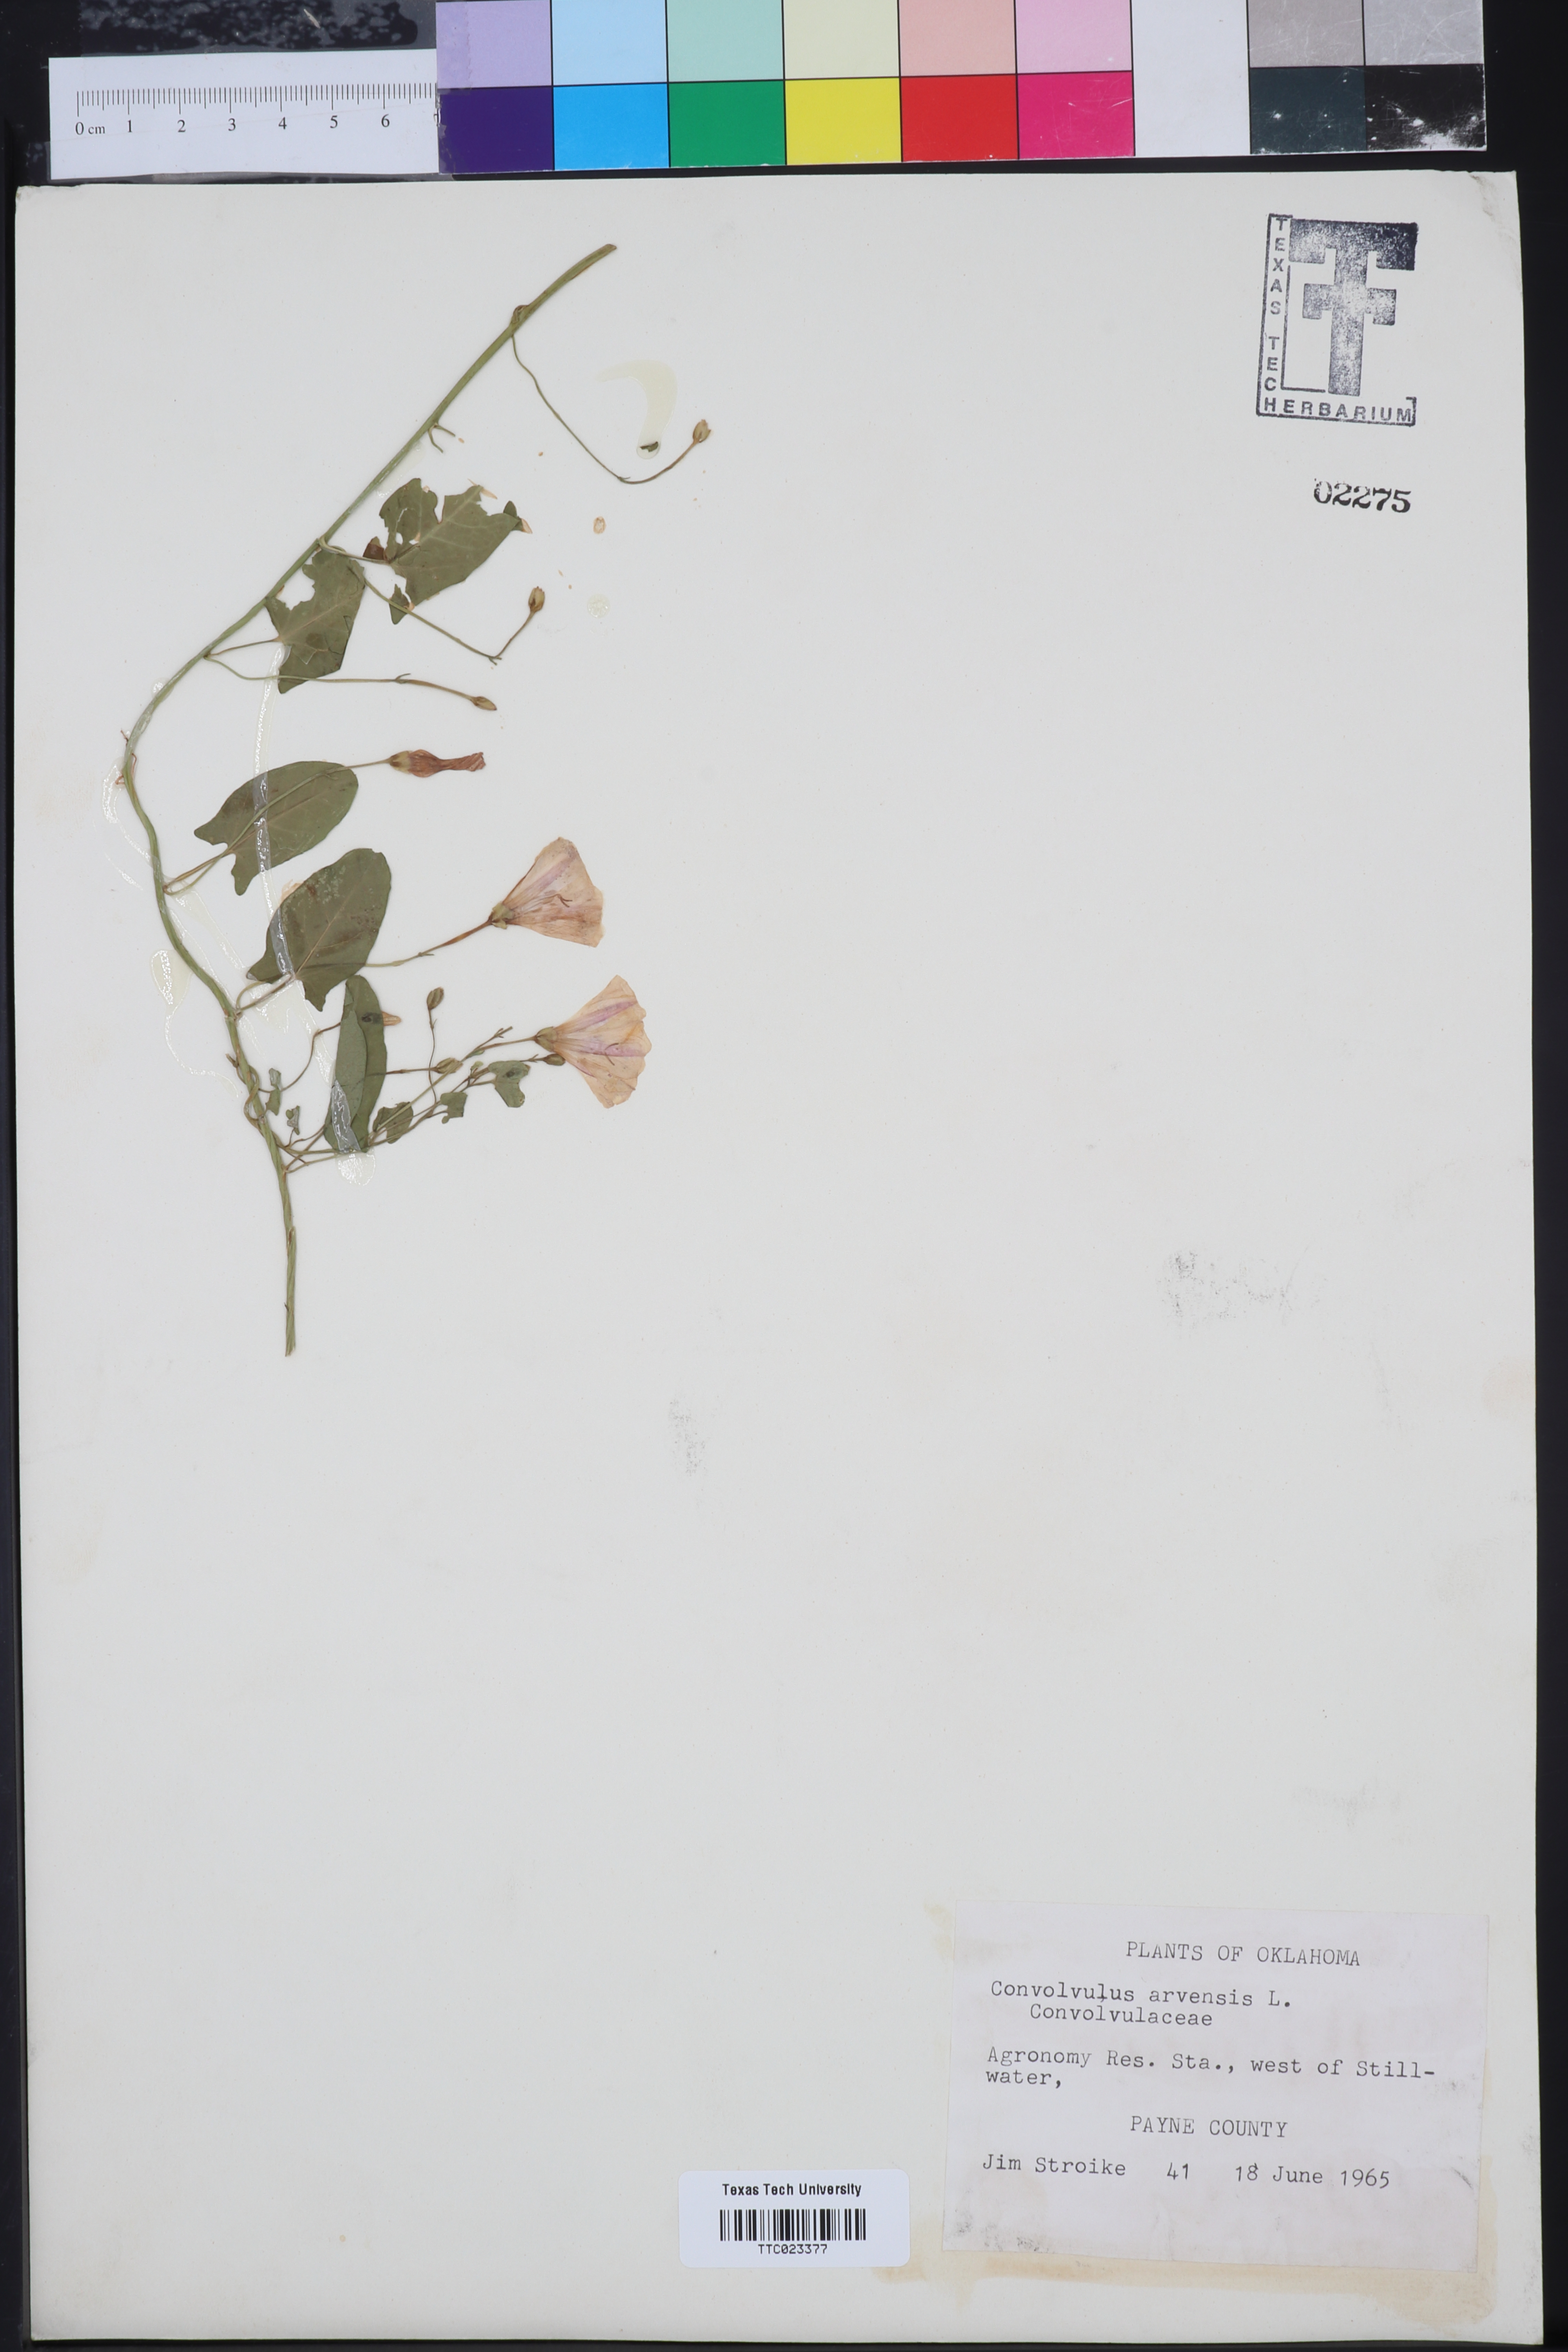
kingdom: Plantae
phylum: Tracheophyta
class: Magnoliopsida
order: Solanales
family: Convolvulaceae
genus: Convolvulus
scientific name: Convolvulus arvensis
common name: Field bindweed
